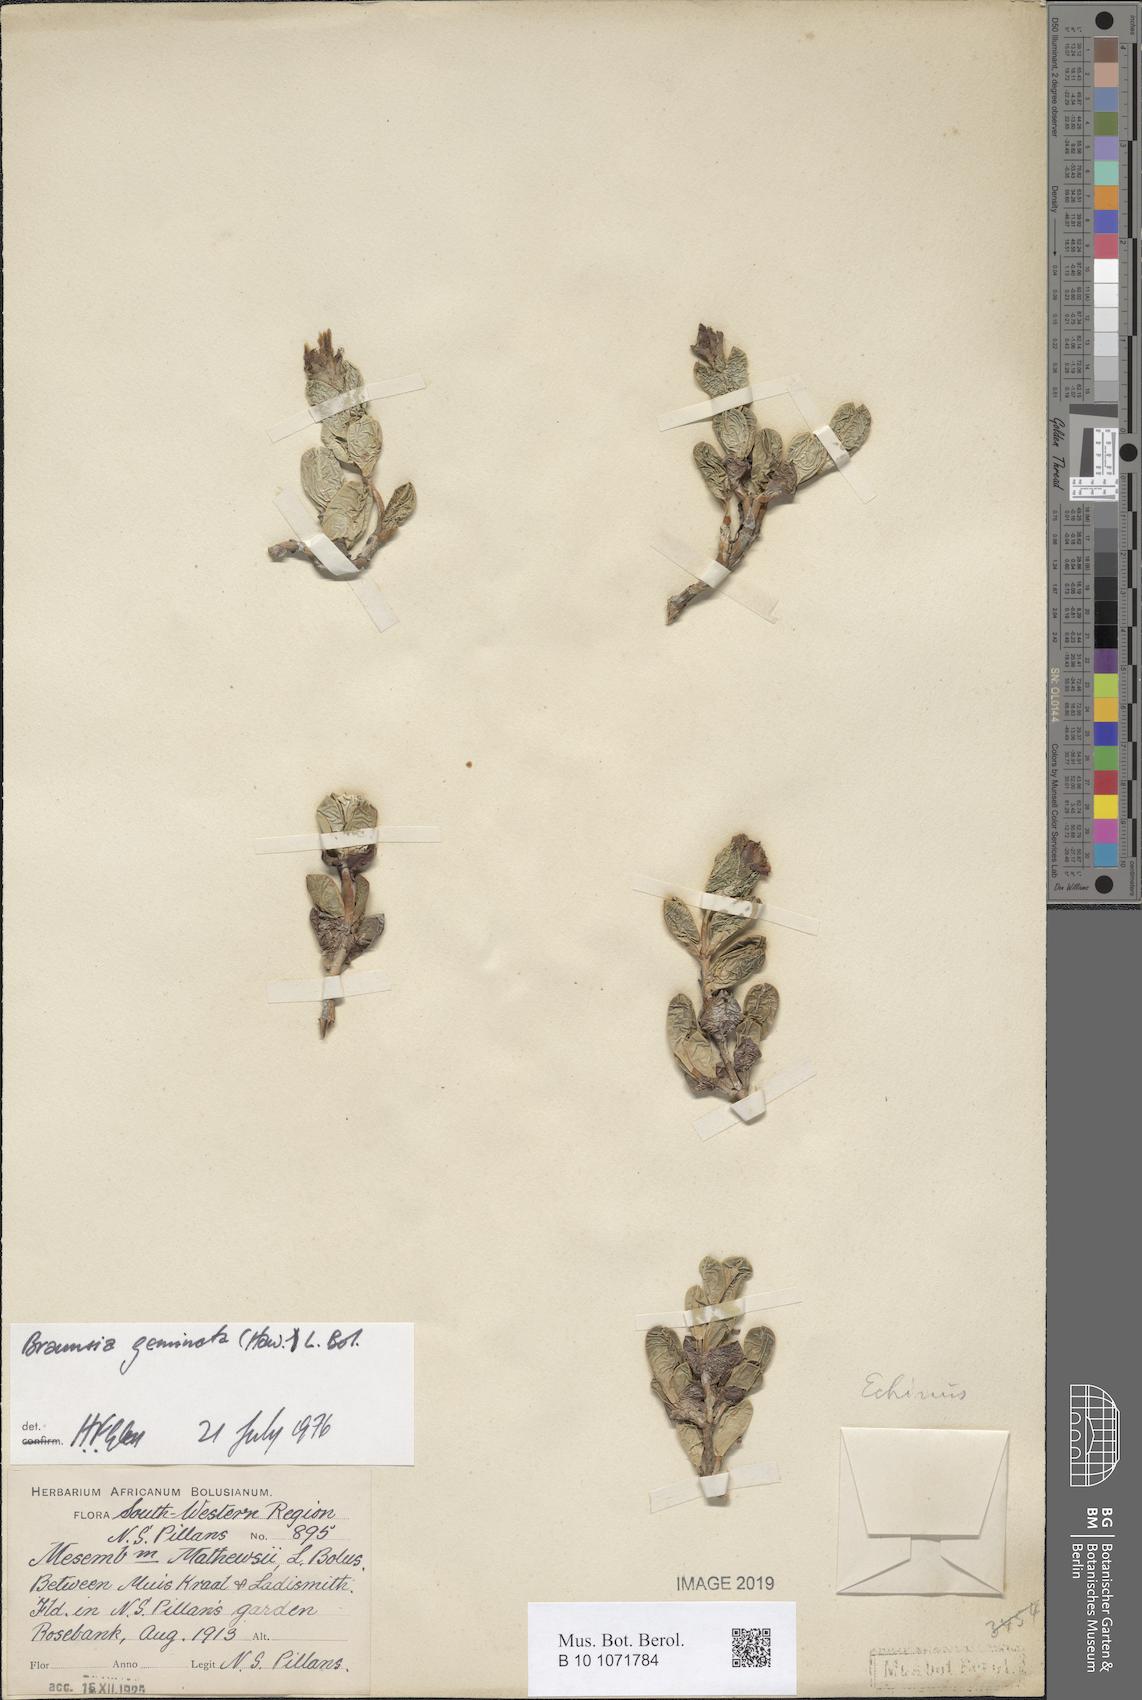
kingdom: Plantae
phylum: Tracheophyta
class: Magnoliopsida
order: Caryophyllales
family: Aizoaceae
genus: Braunsia
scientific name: Braunsia geminata
